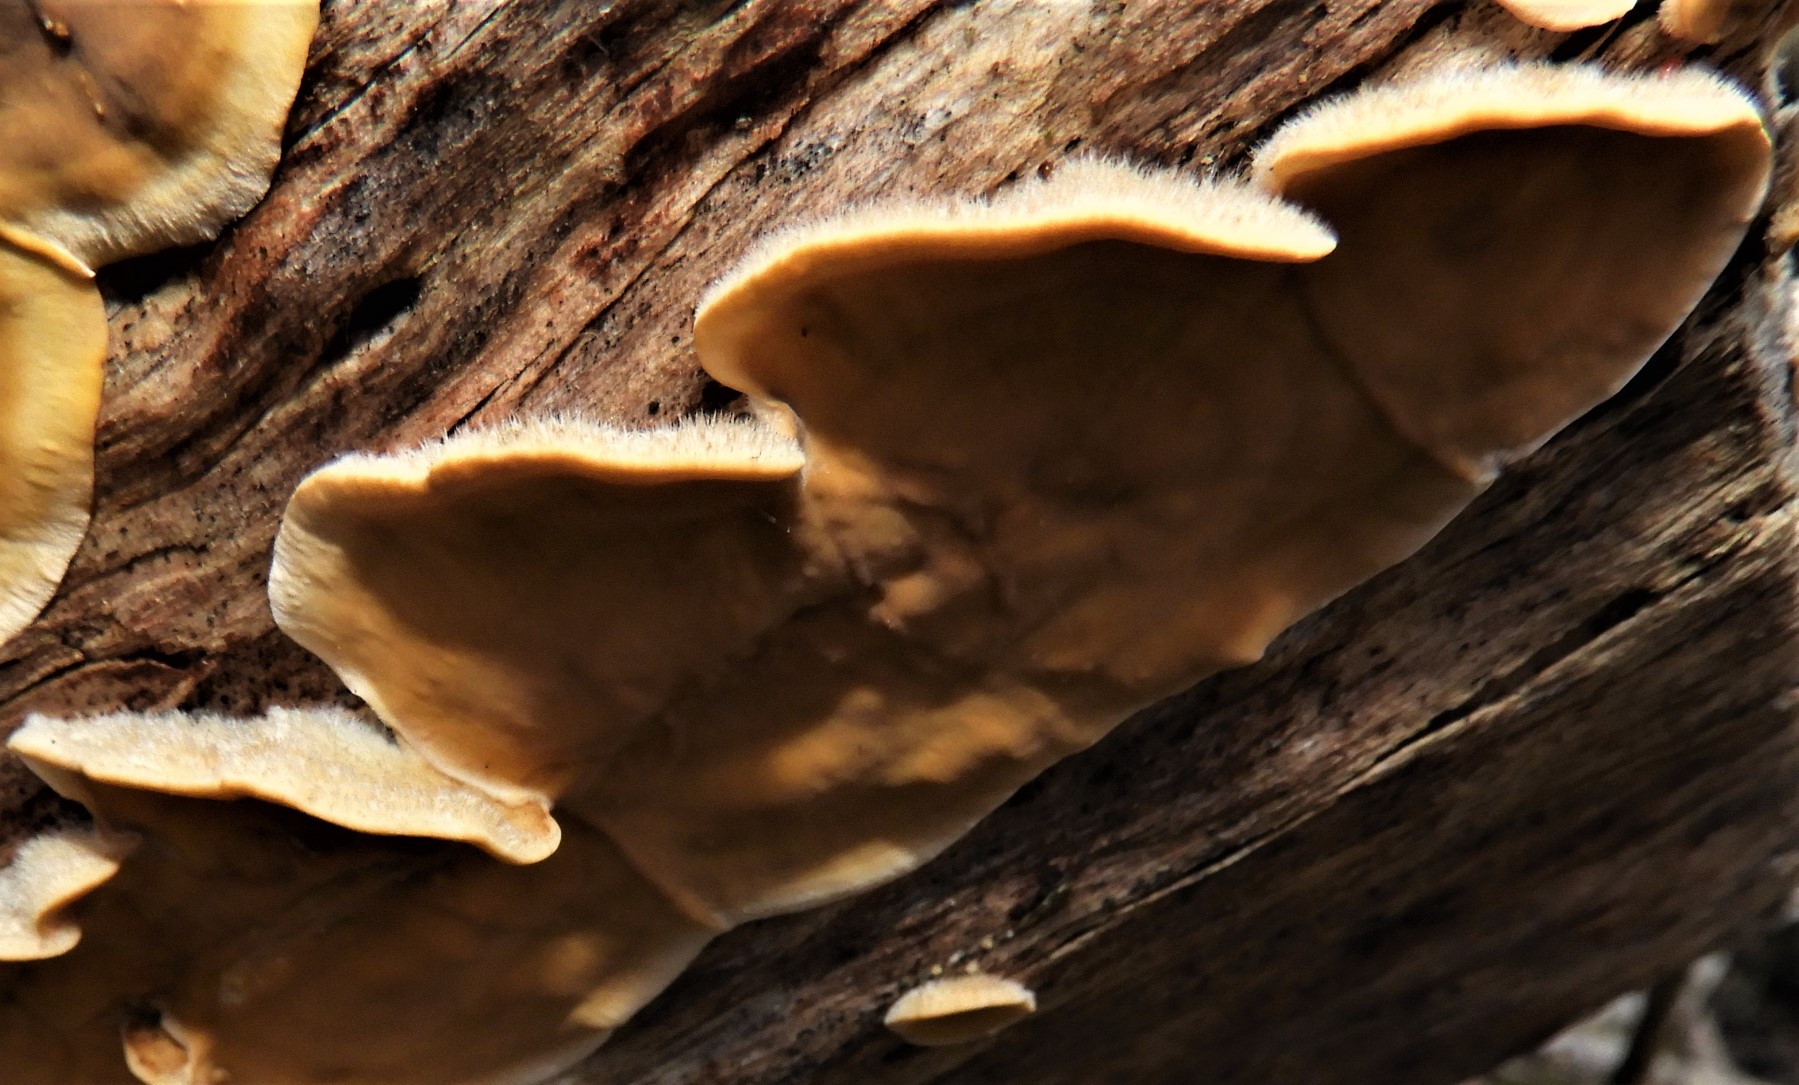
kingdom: Fungi
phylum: Basidiomycota
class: Agaricomycetes
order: Russulales
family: Stereaceae
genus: Stereum
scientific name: Stereum hirsutum
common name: håret lædersvamp
